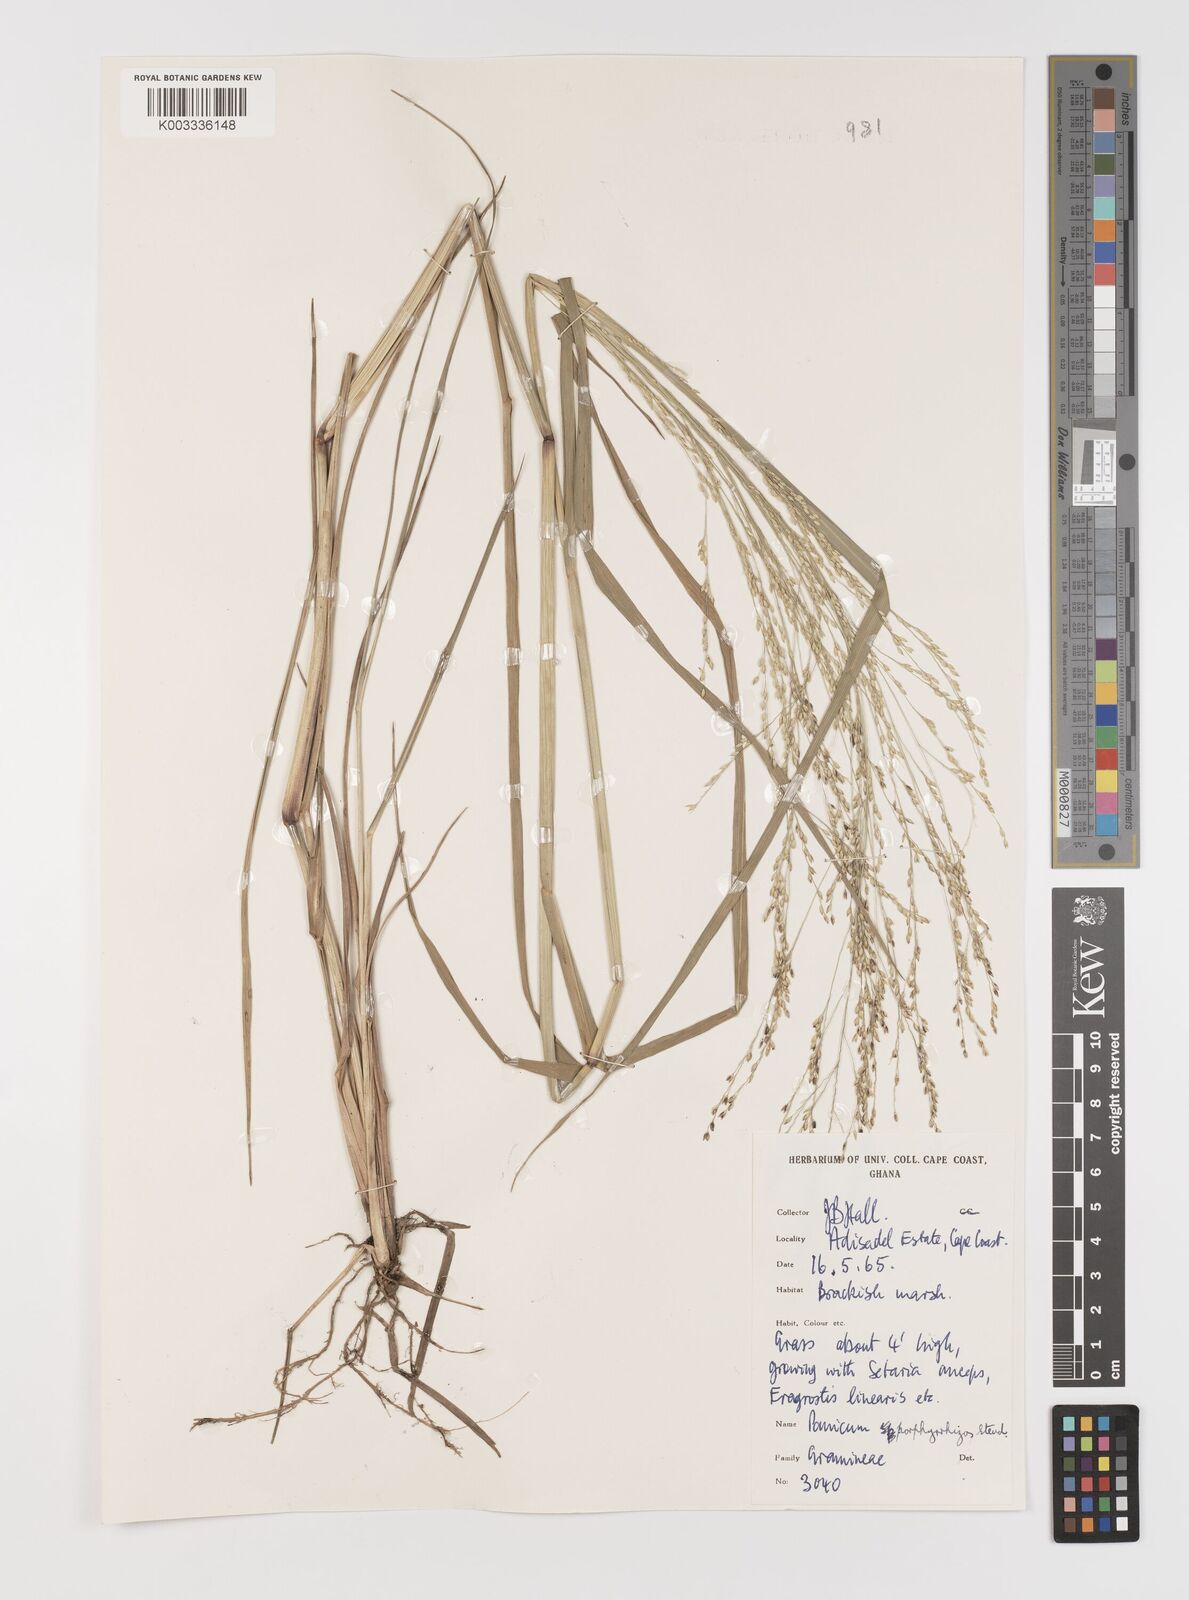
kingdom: Plantae
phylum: Tracheophyta
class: Liliopsida
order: Poales
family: Poaceae
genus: Panicum
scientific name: Panicum porphyrrhizos
